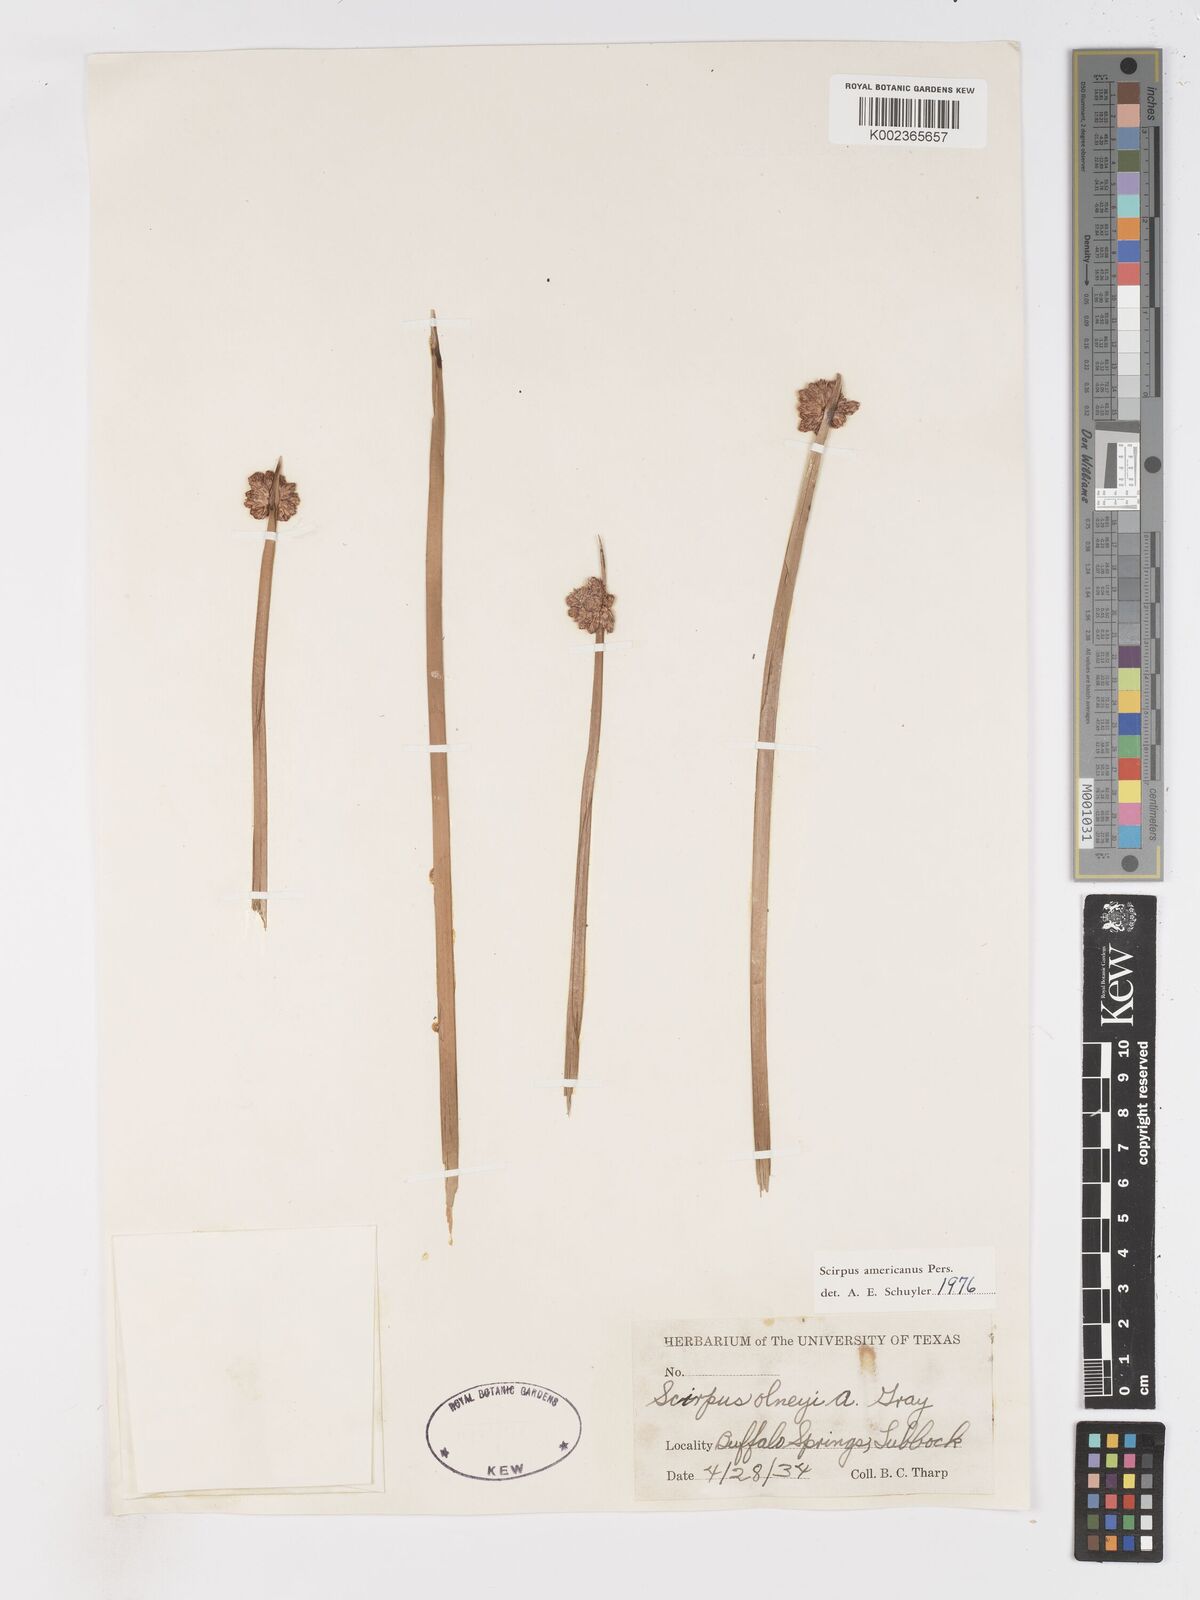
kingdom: Plantae
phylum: Tracheophyta
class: Liliopsida
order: Poales
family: Cyperaceae
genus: Schoenoplectus
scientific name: Schoenoplectus americanus
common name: American three-square bulrush
